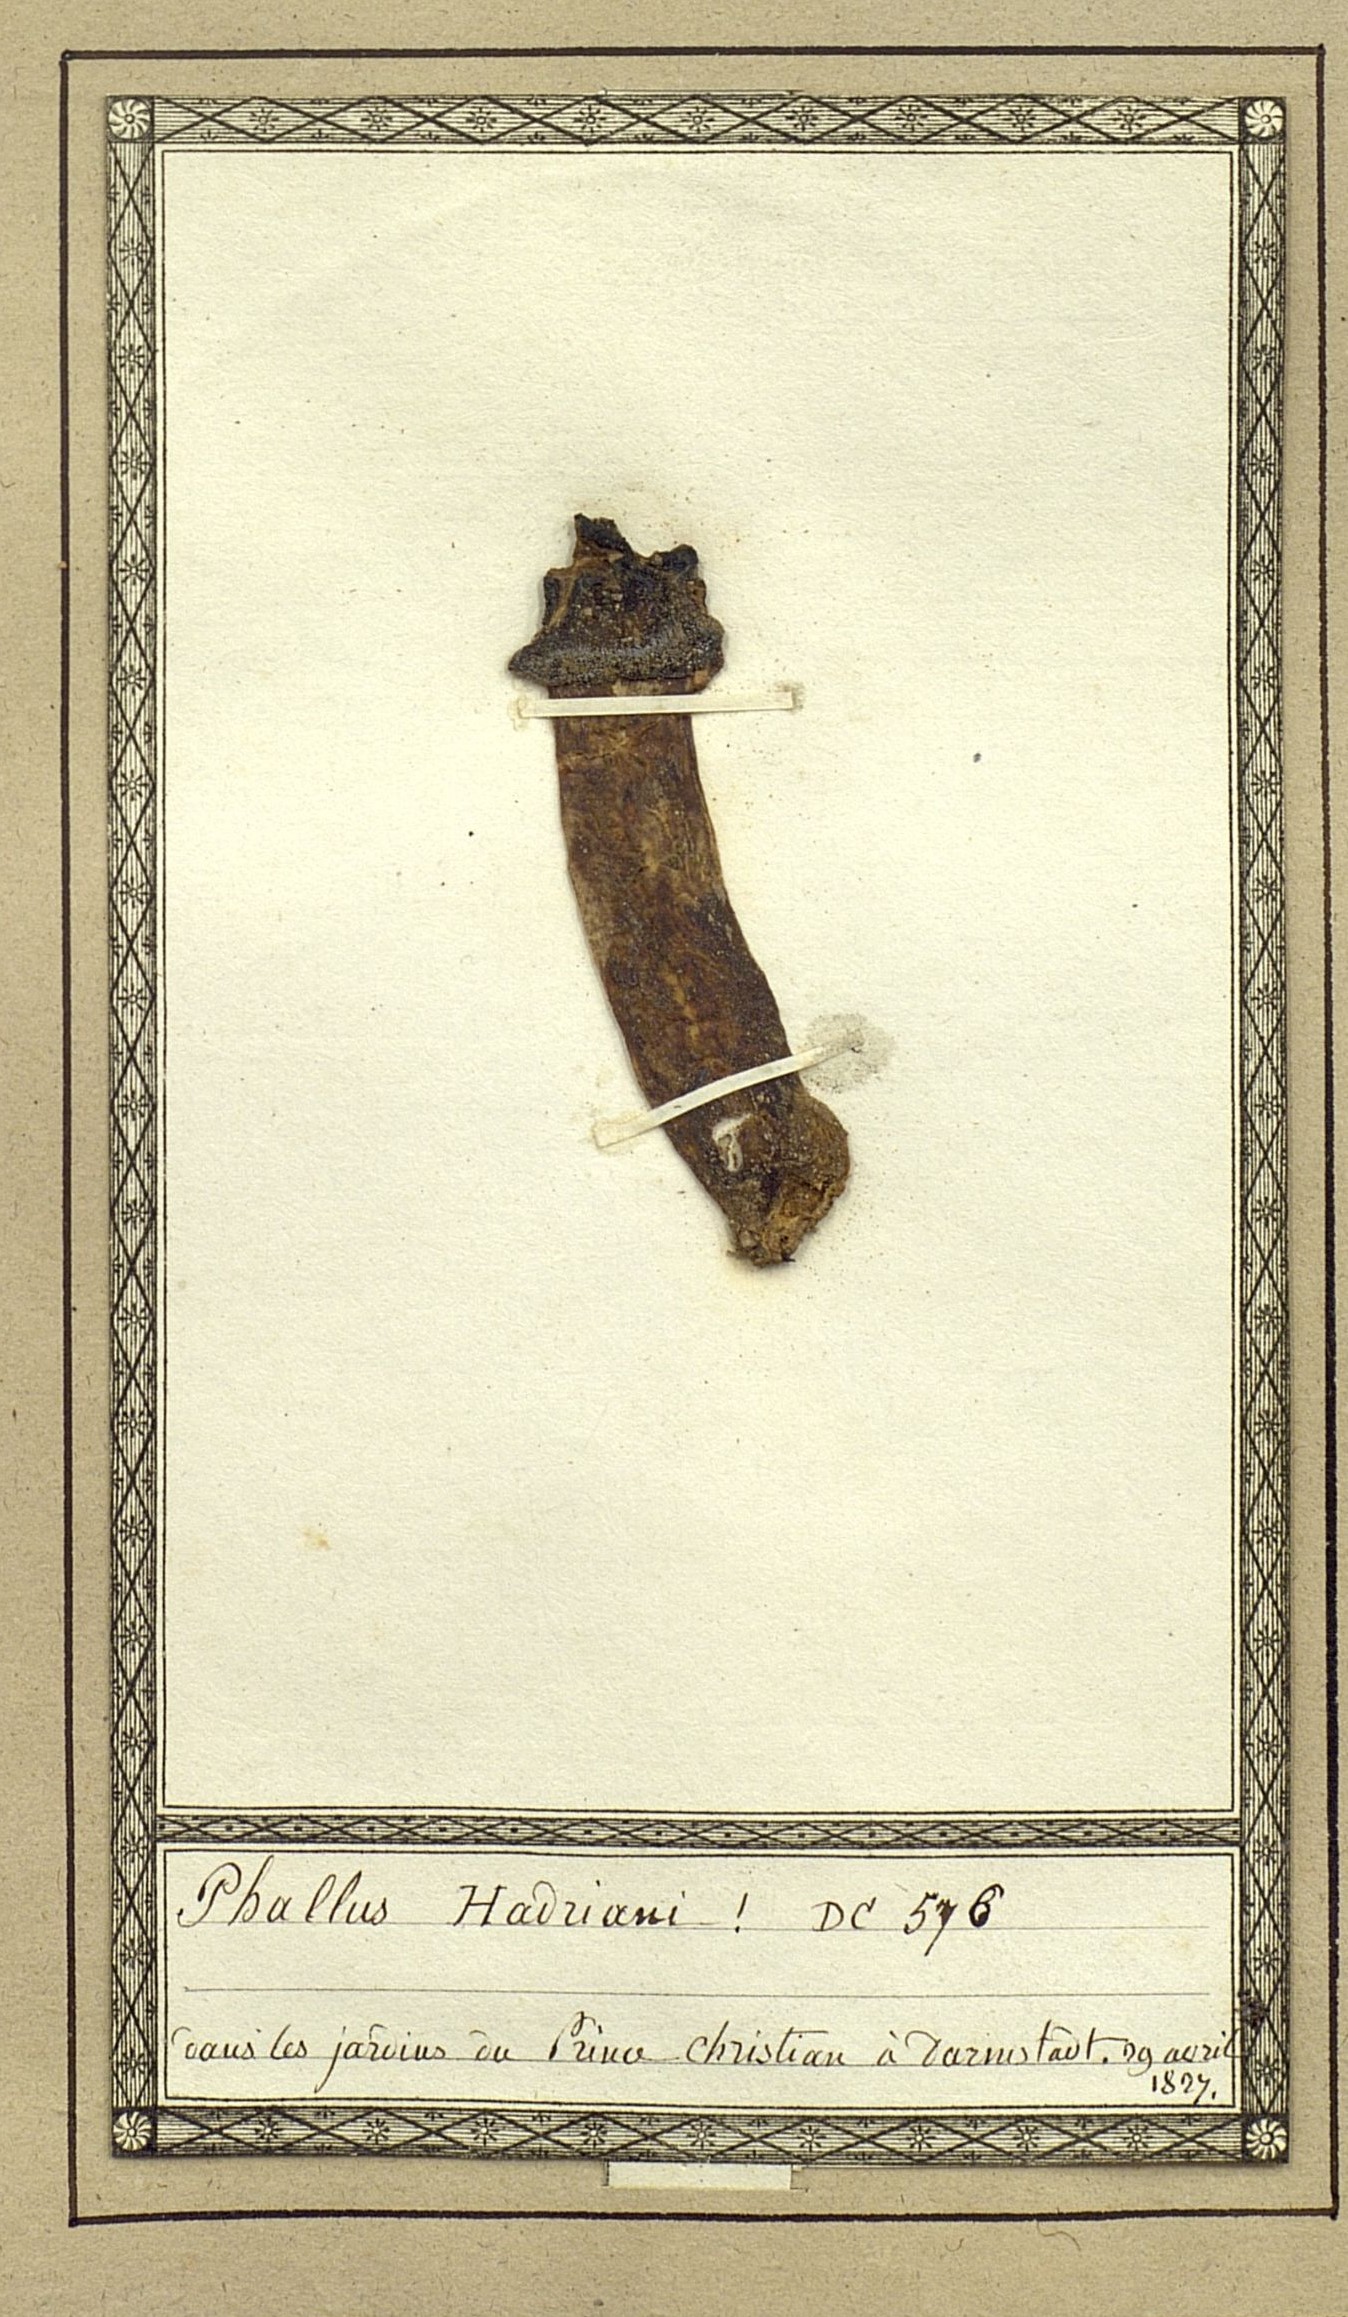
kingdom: Fungi
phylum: Basidiomycota
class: Agaricomycetes
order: Phallales
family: Phallaceae
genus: Phallus
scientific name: Phallus hadriani
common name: Sand stinkhorn
